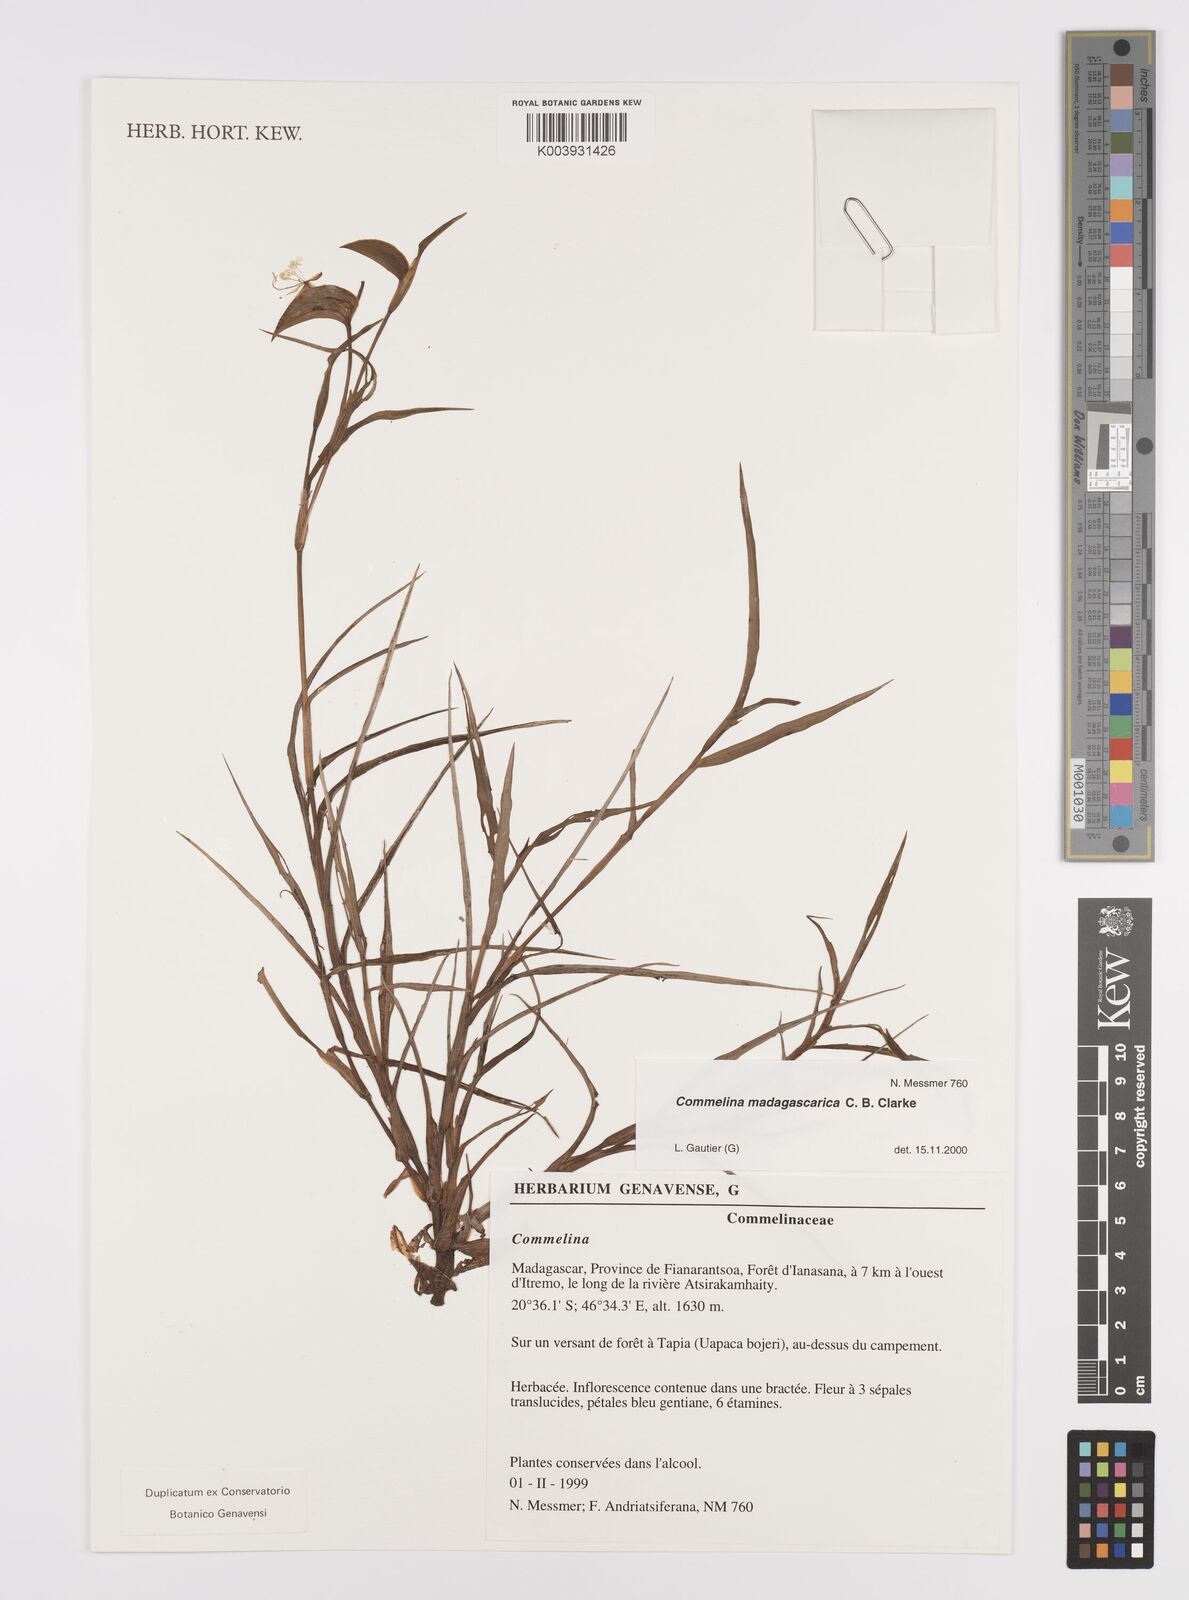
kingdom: Plantae
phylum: Tracheophyta
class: Liliopsida
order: Commelinales
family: Commelinaceae
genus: Commelina
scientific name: Commelina madagascarica
